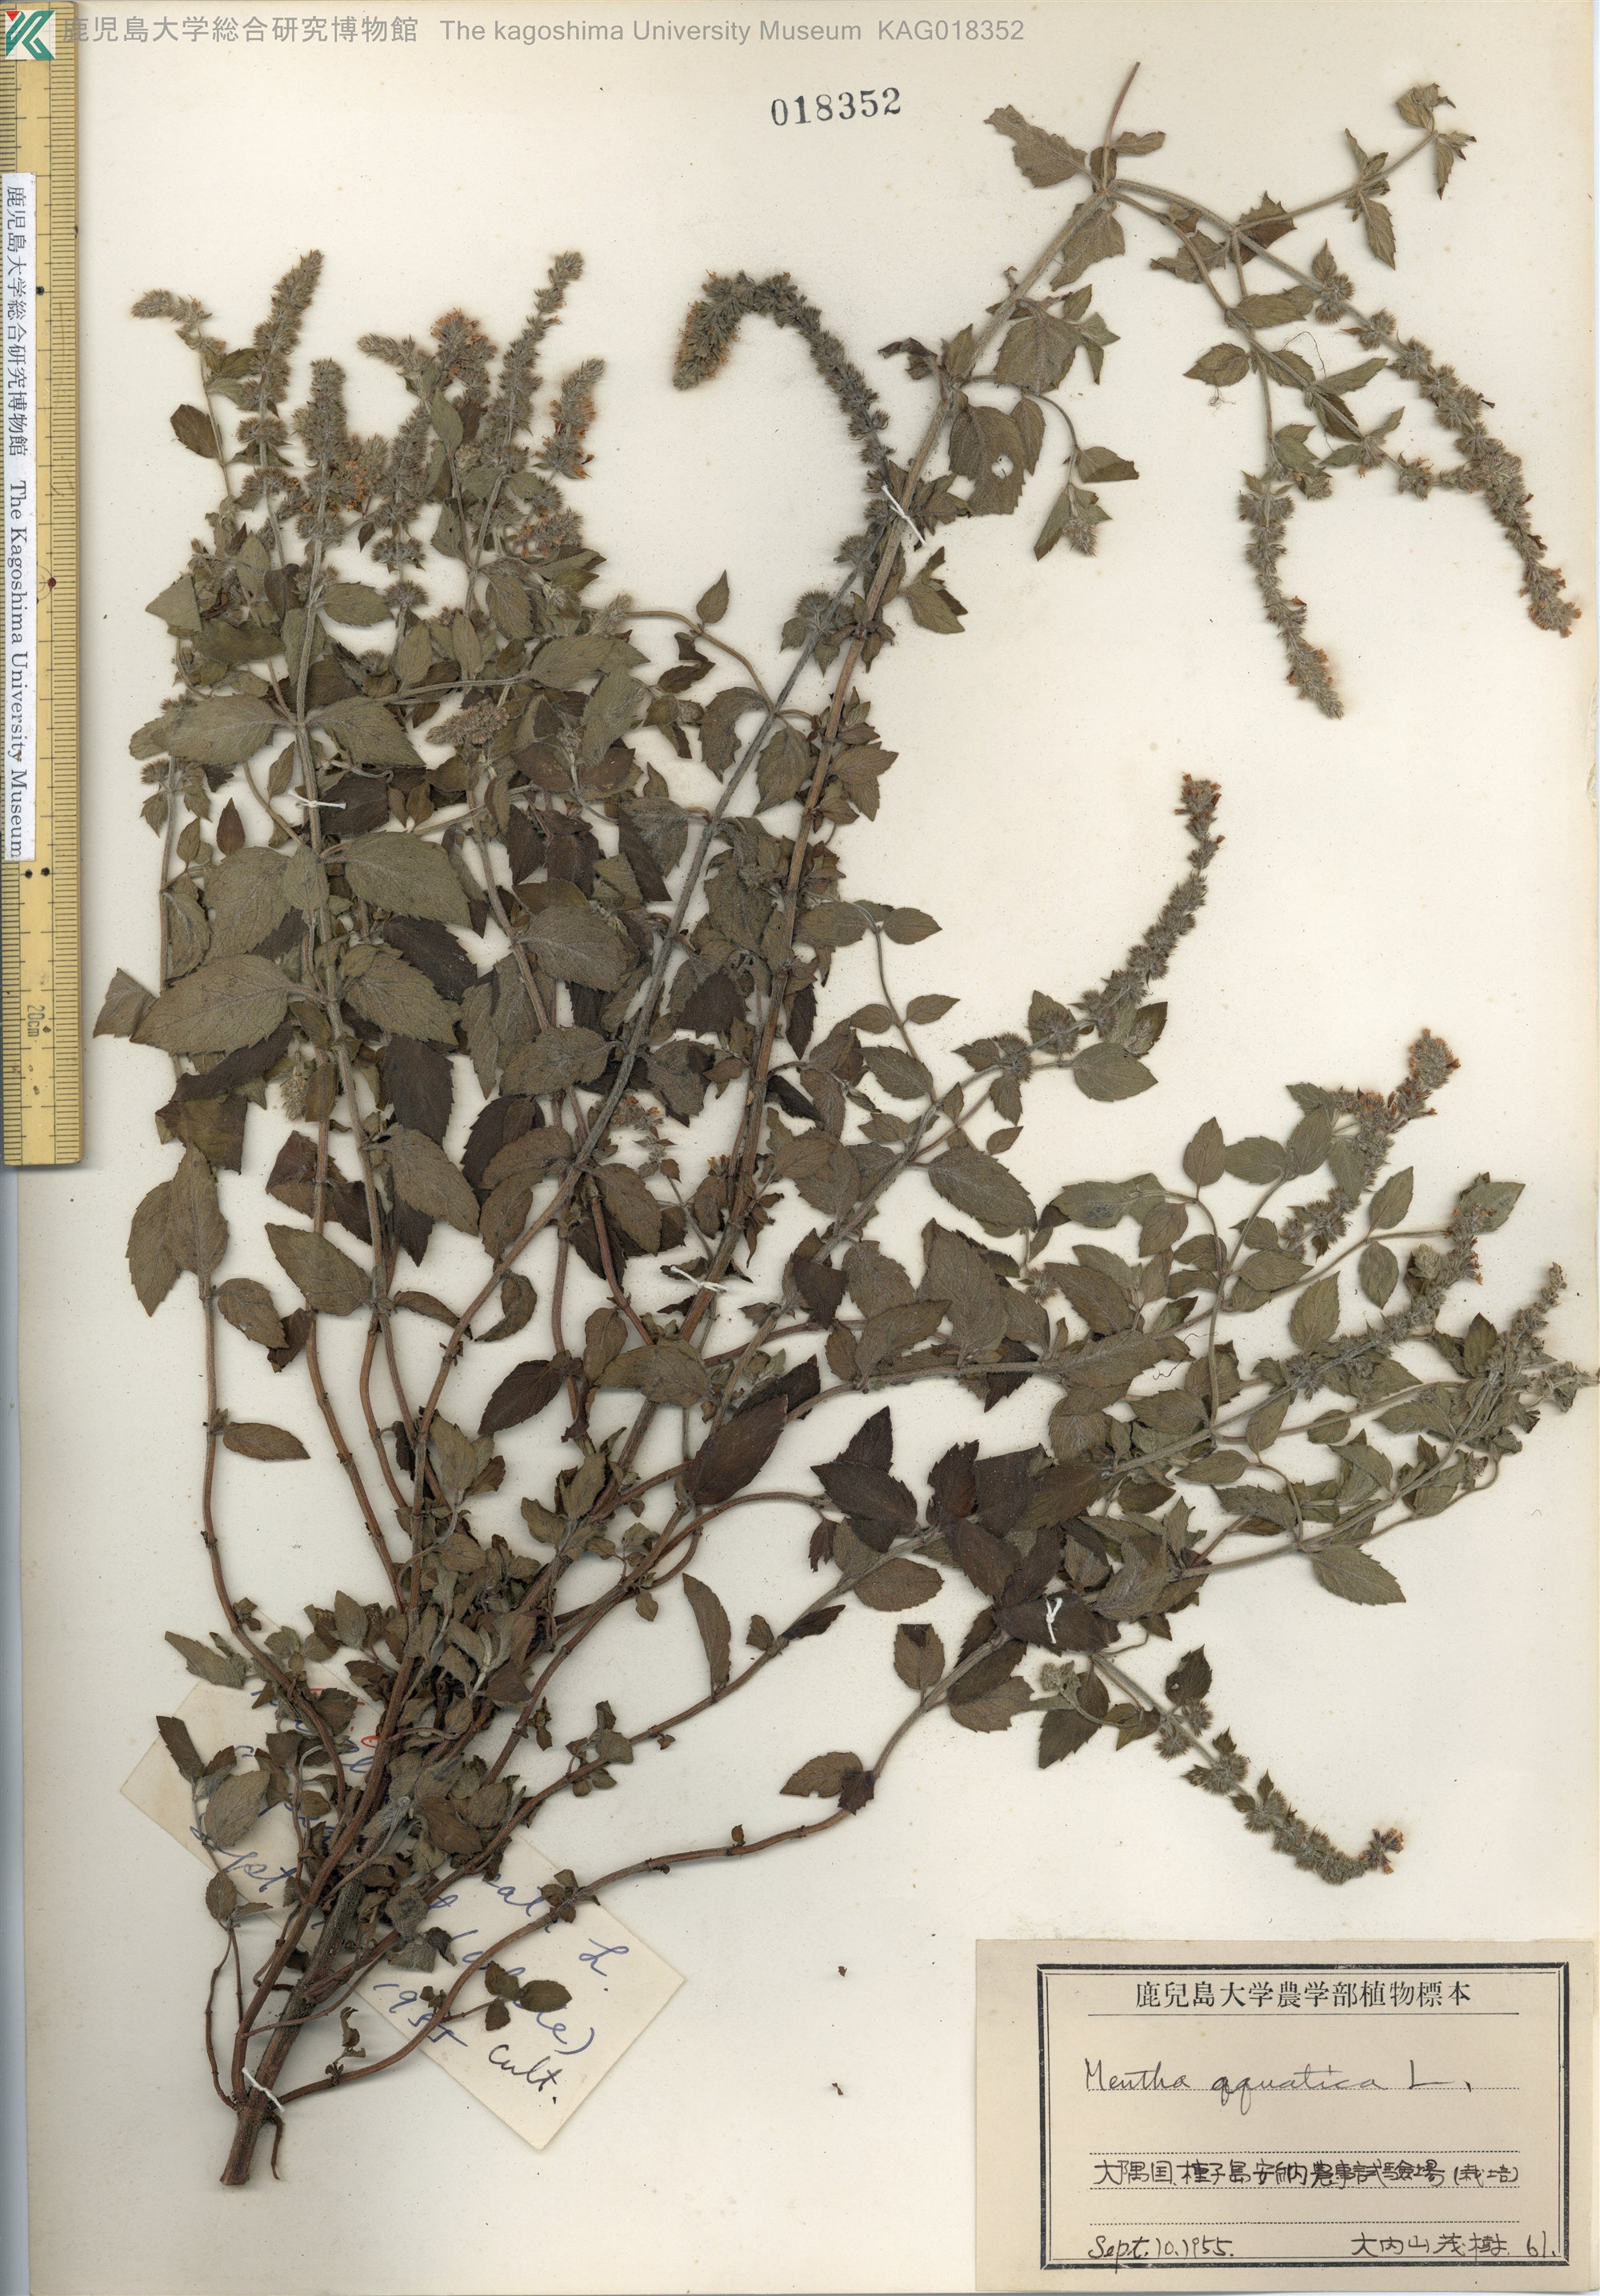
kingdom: Plantae
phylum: Tracheophyta
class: Magnoliopsida
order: Lamiales
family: Lamiaceae
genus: Mentha
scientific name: Mentha aquatica
